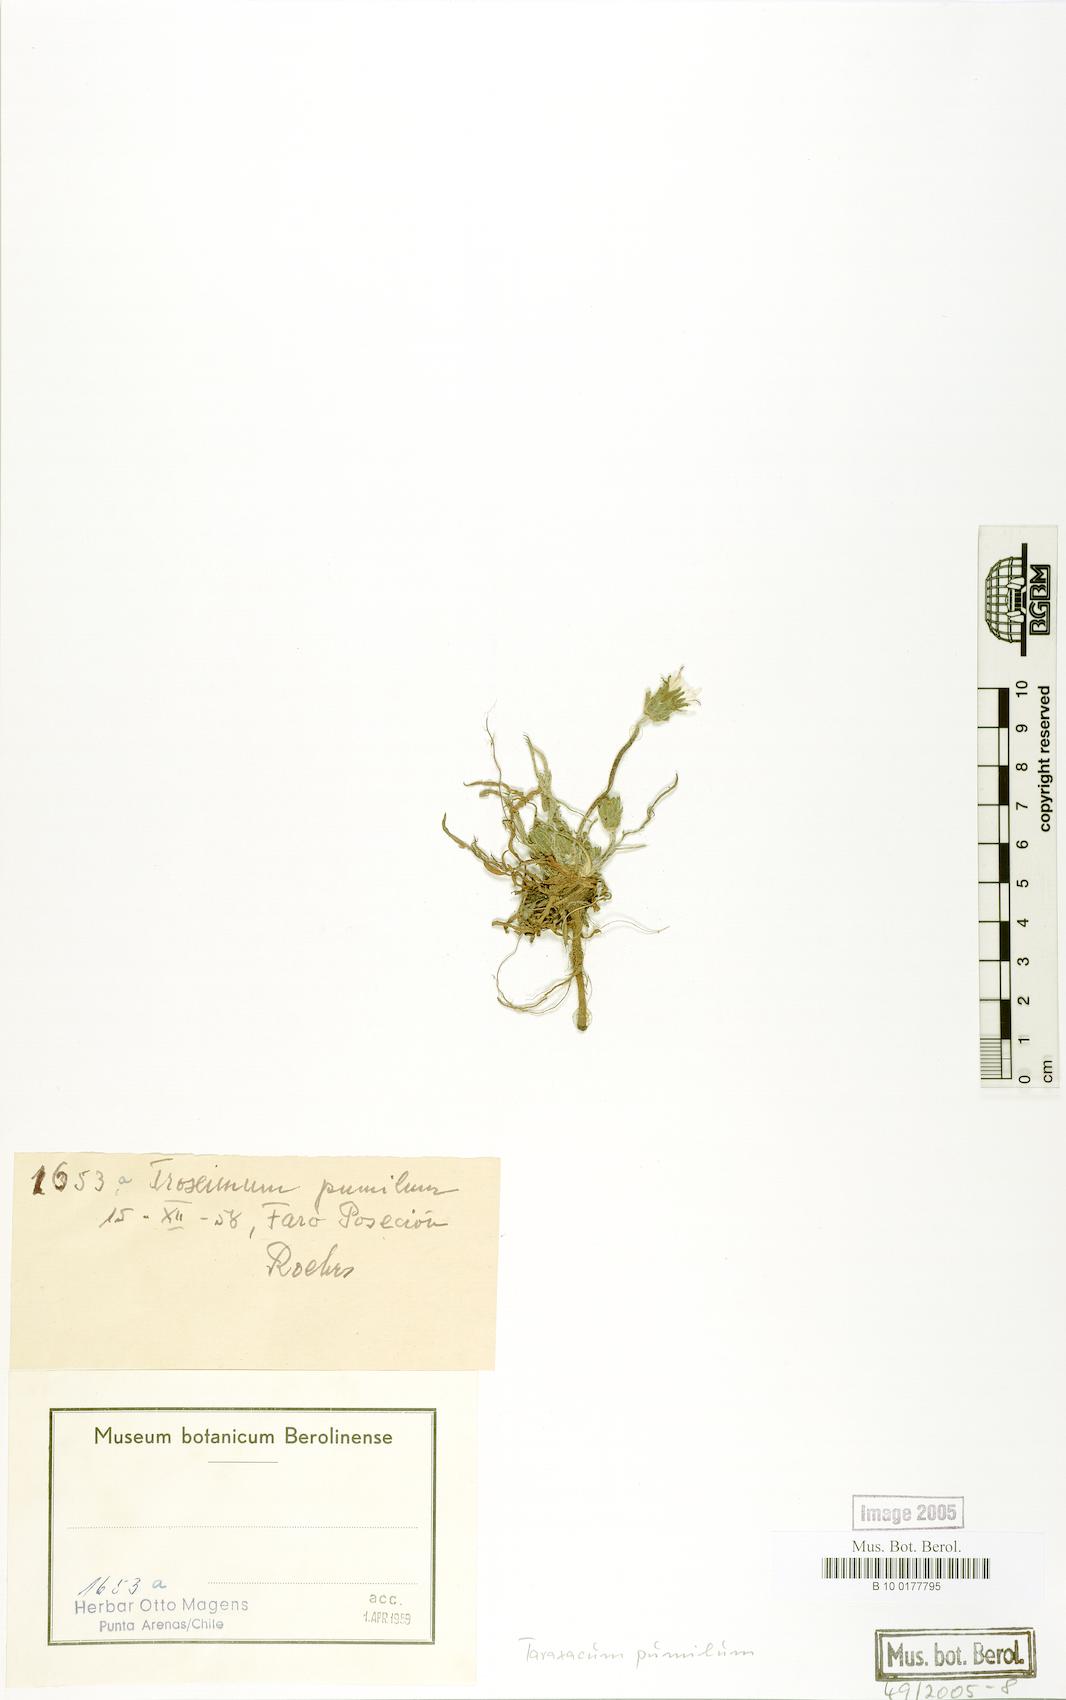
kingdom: Plantae
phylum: Tracheophyta
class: Magnoliopsida
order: Asterales
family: Asteraceae
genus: Taraxacum
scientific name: Taraxacum gilliesii
